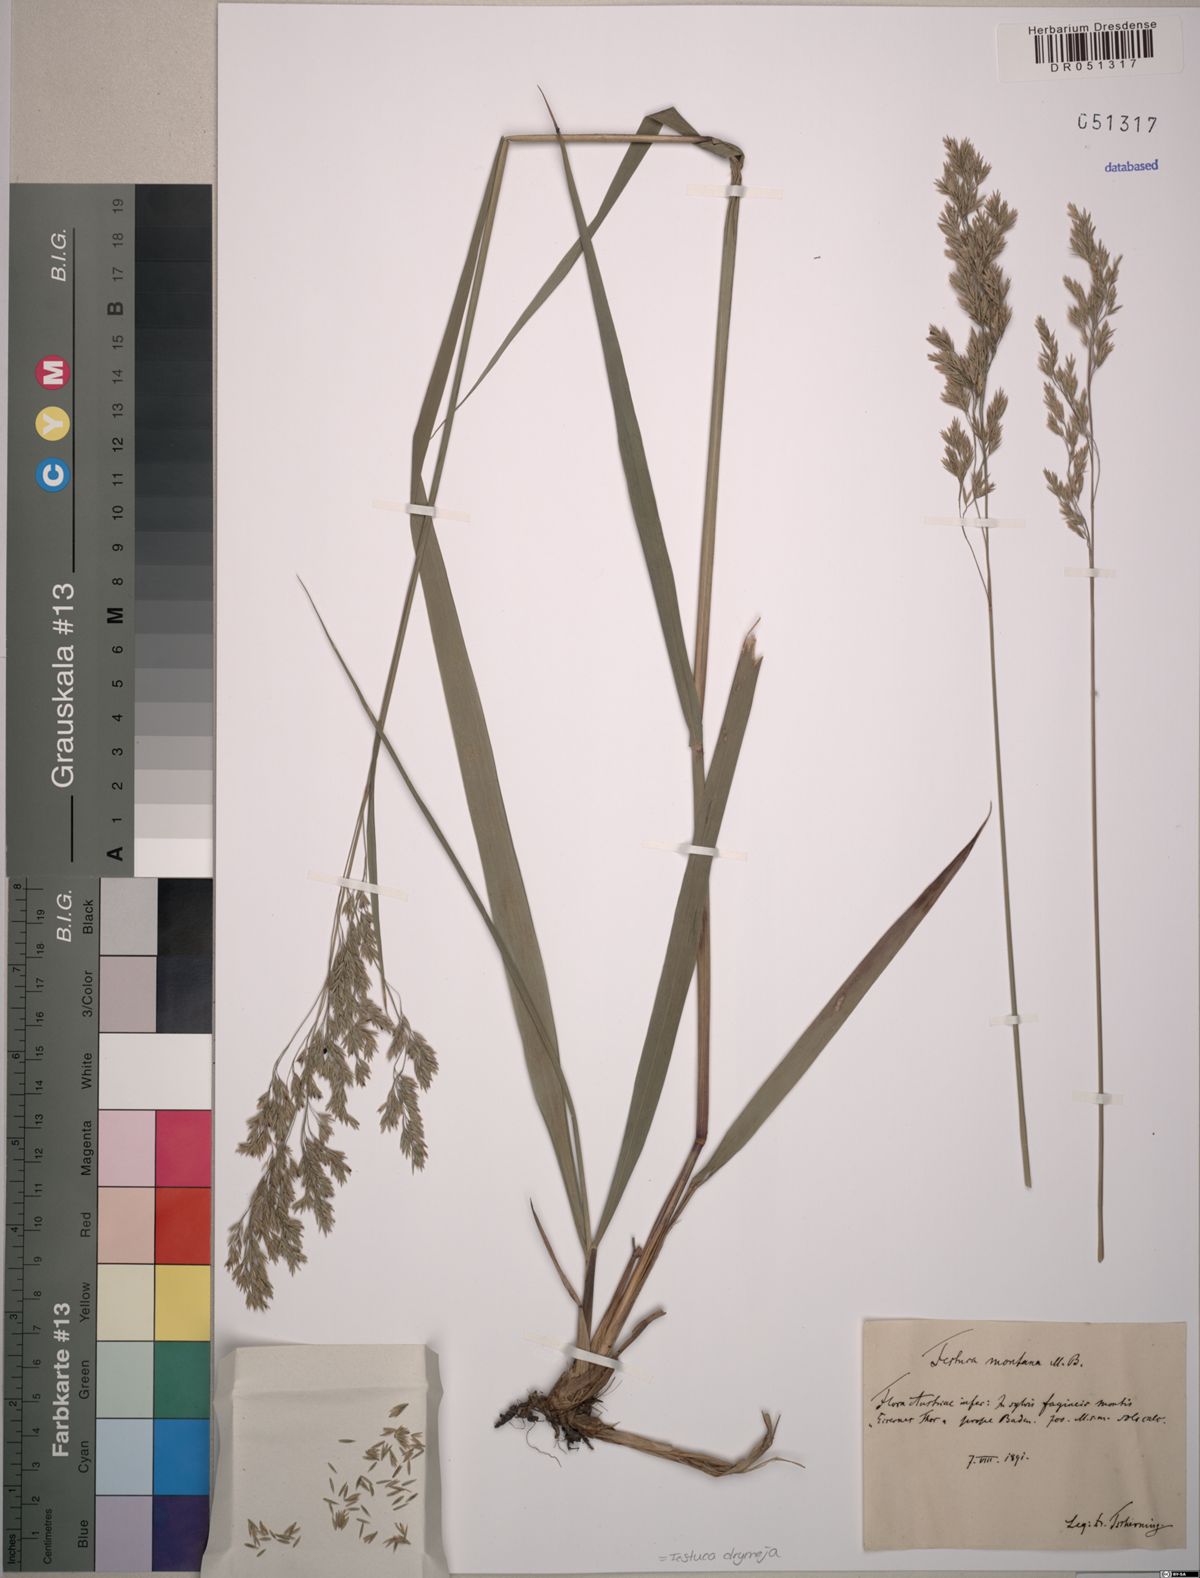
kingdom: Plantae
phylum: Tracheophyta
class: Liliopsida
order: Poales
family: Poaceae
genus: Festuca
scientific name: Festuca drymeja
